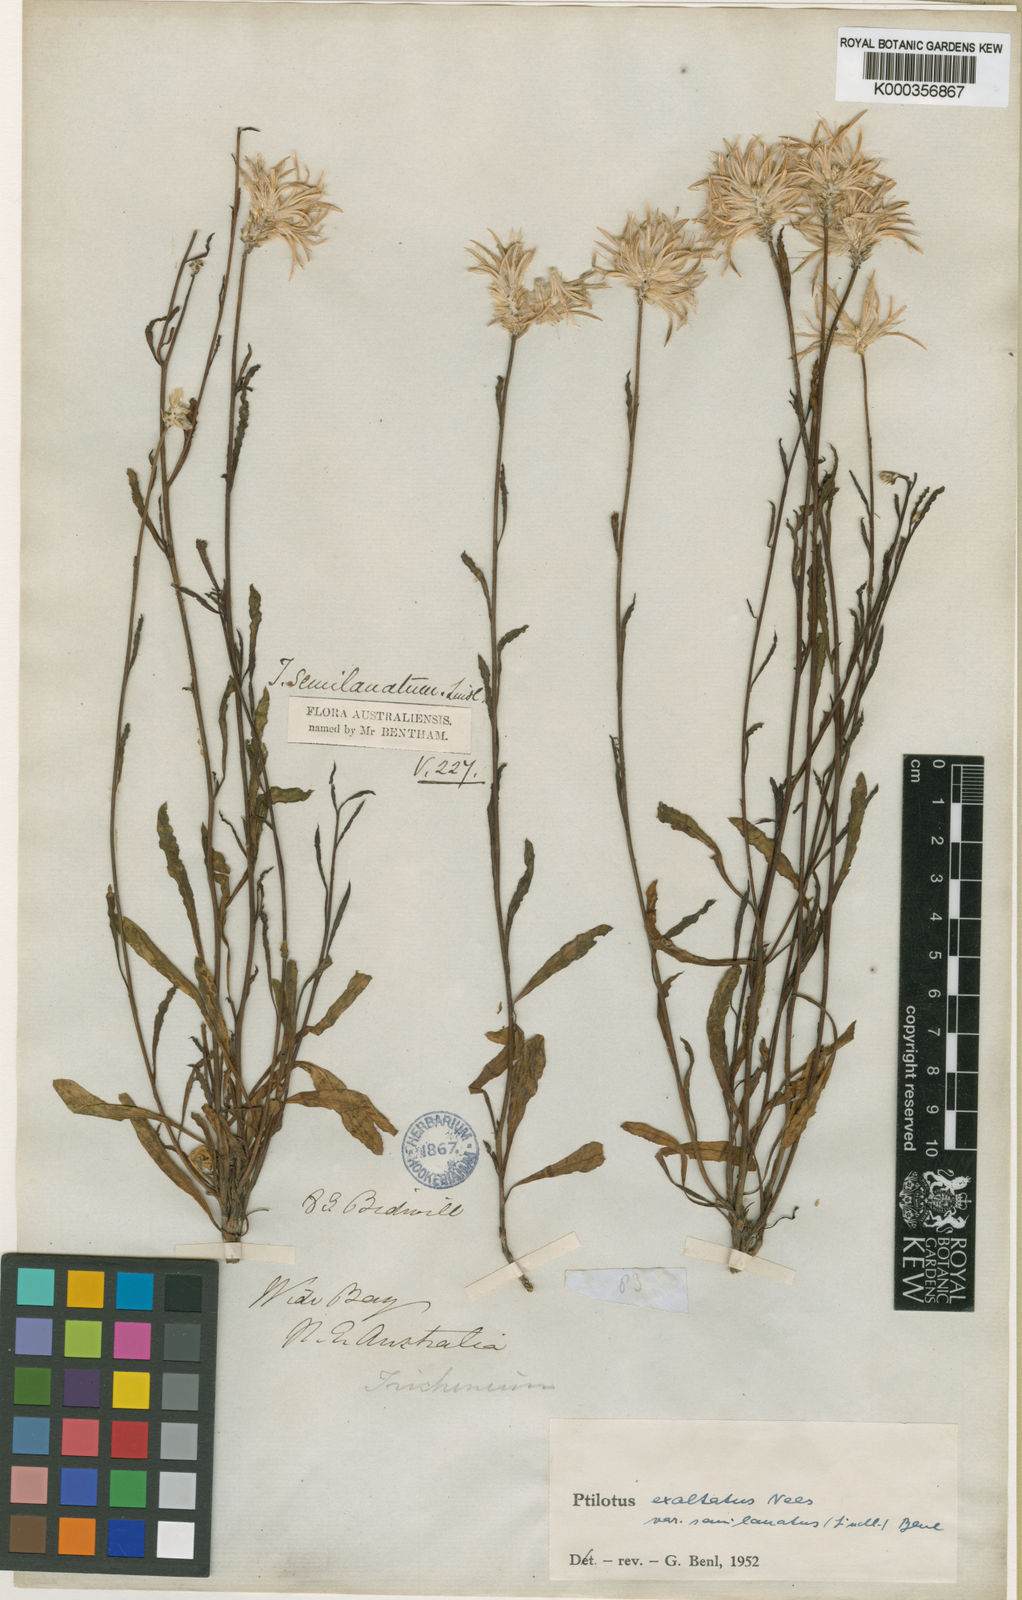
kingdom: Plantae
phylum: Tracheophyta
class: Magnoliopsida
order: Caryophyllales
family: Amaranthaceae
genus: Ptilotus
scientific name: Ptilotus semilanatus
